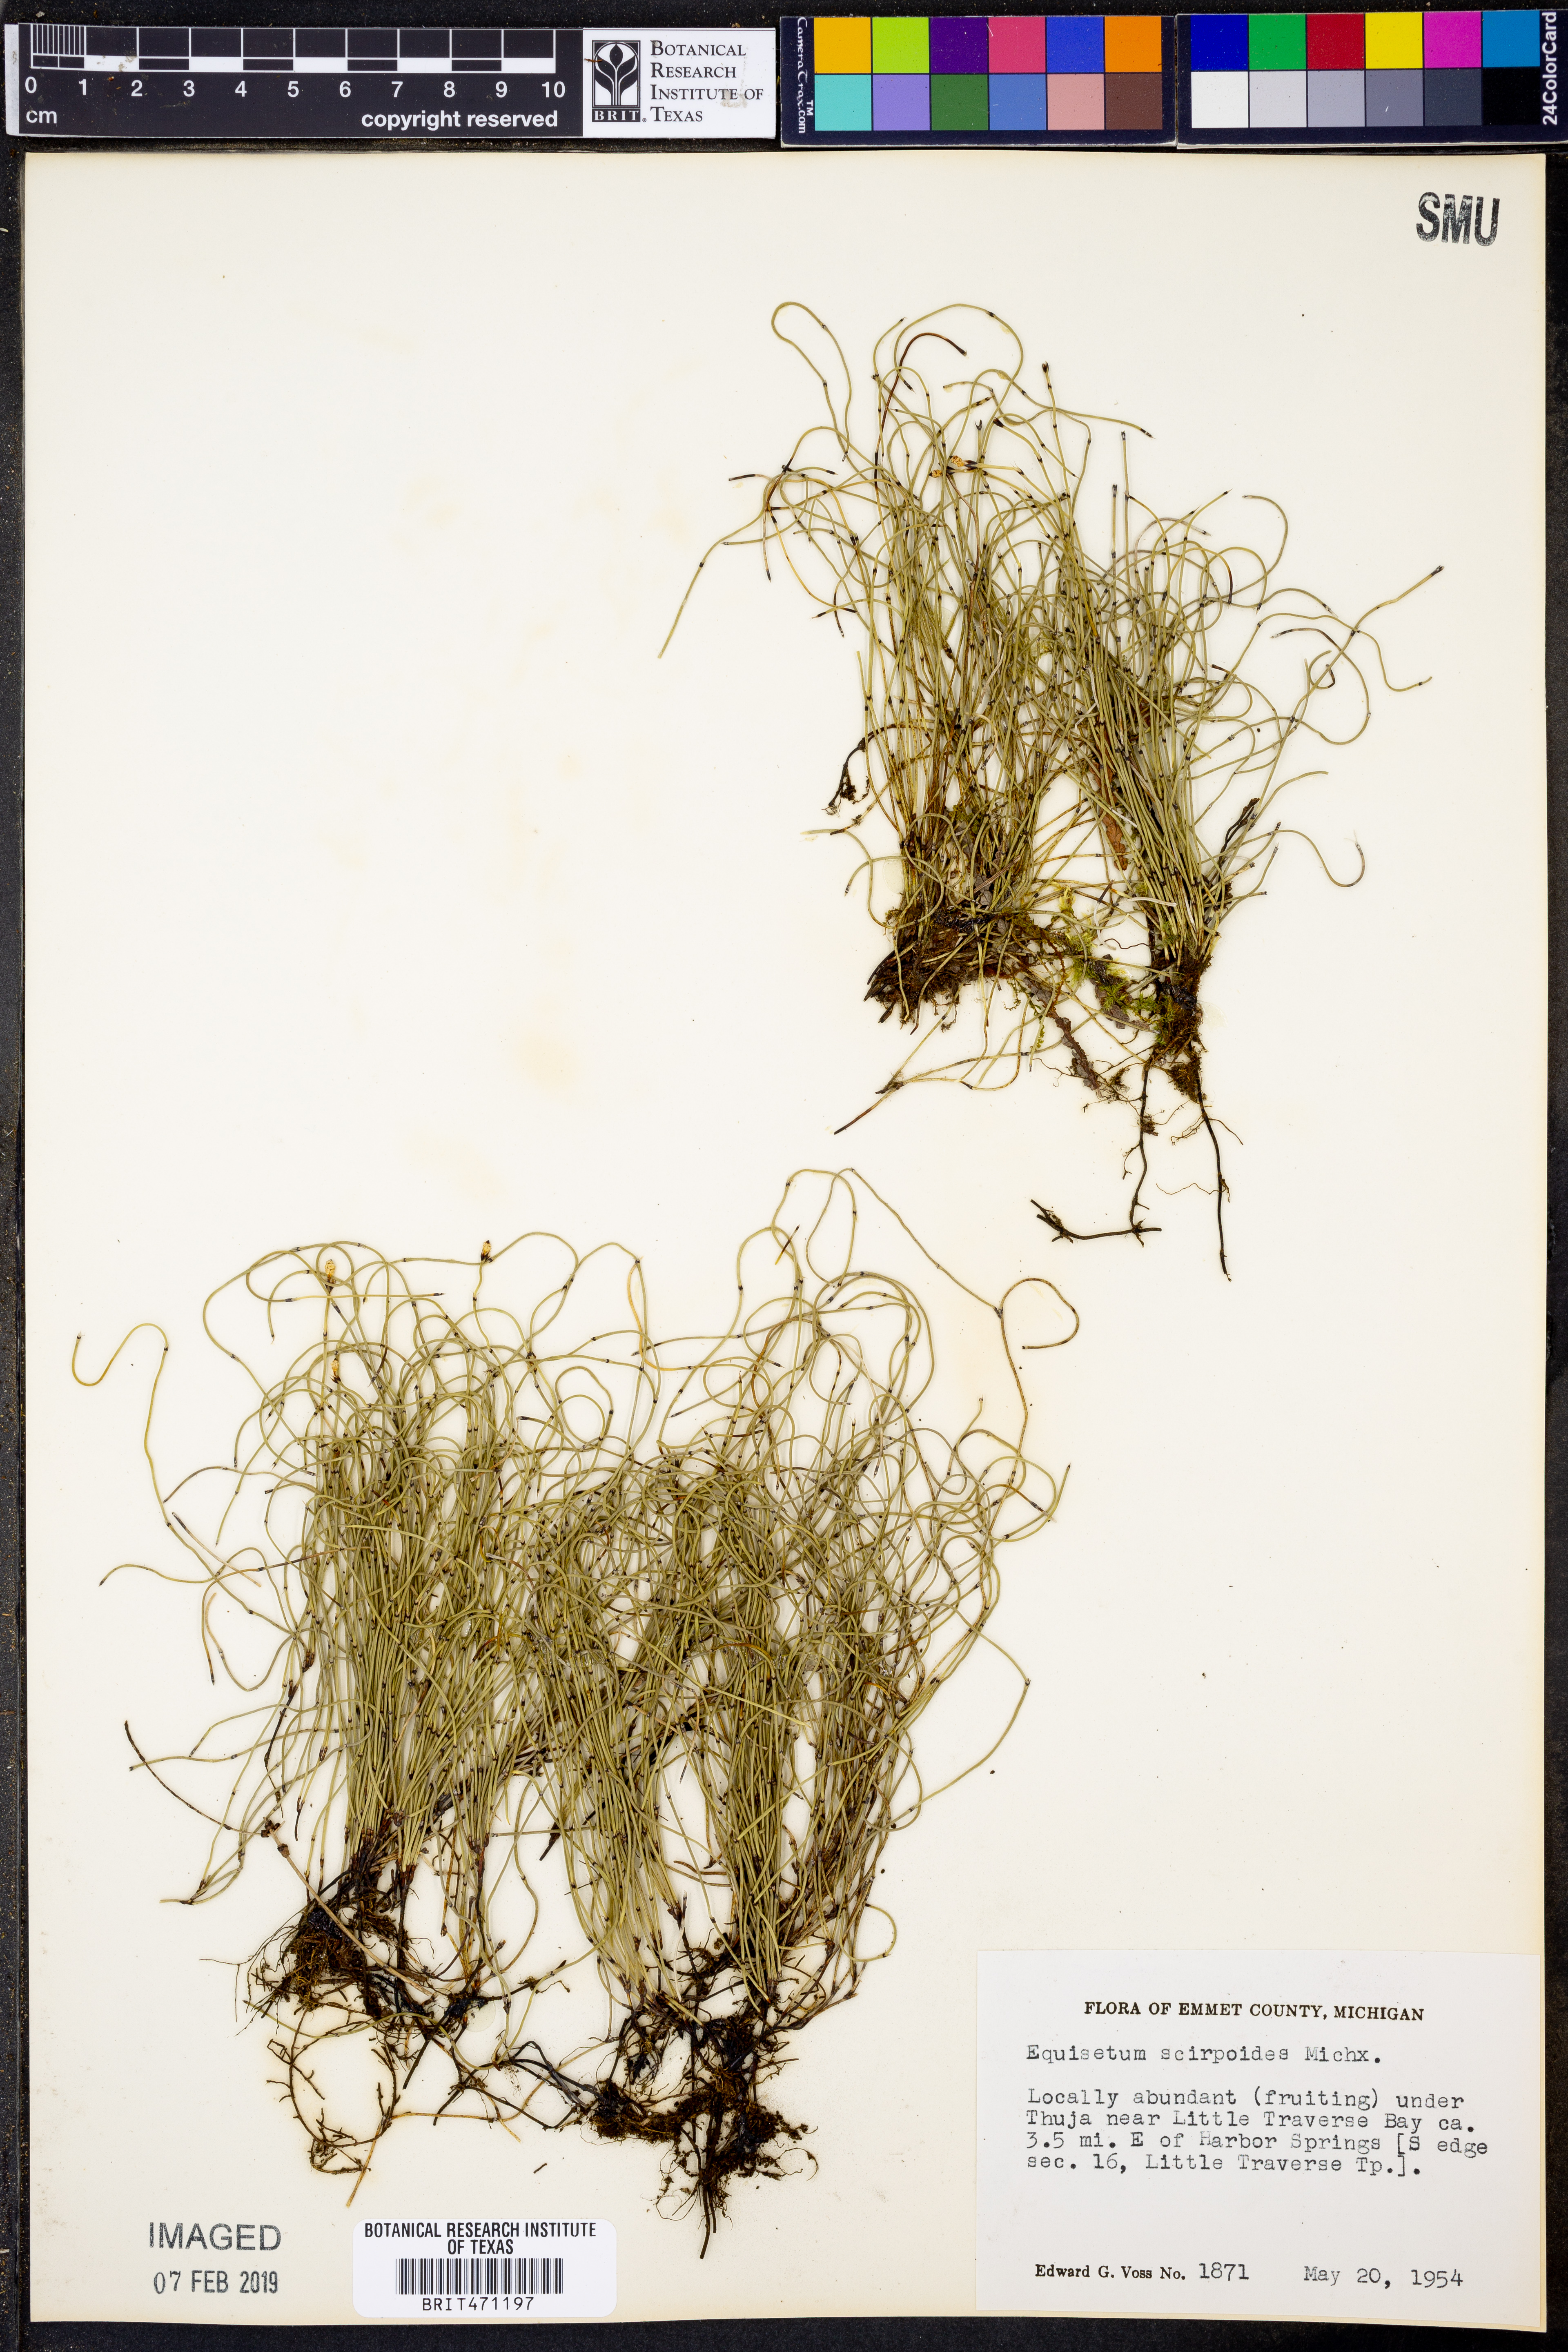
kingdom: Plantae
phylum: Tracheophyta
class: Polypodiopsida
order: Equisetales
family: Equisetaceae
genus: Equisetum
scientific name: Equisetum scirpoides
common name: Delicate horsetail
